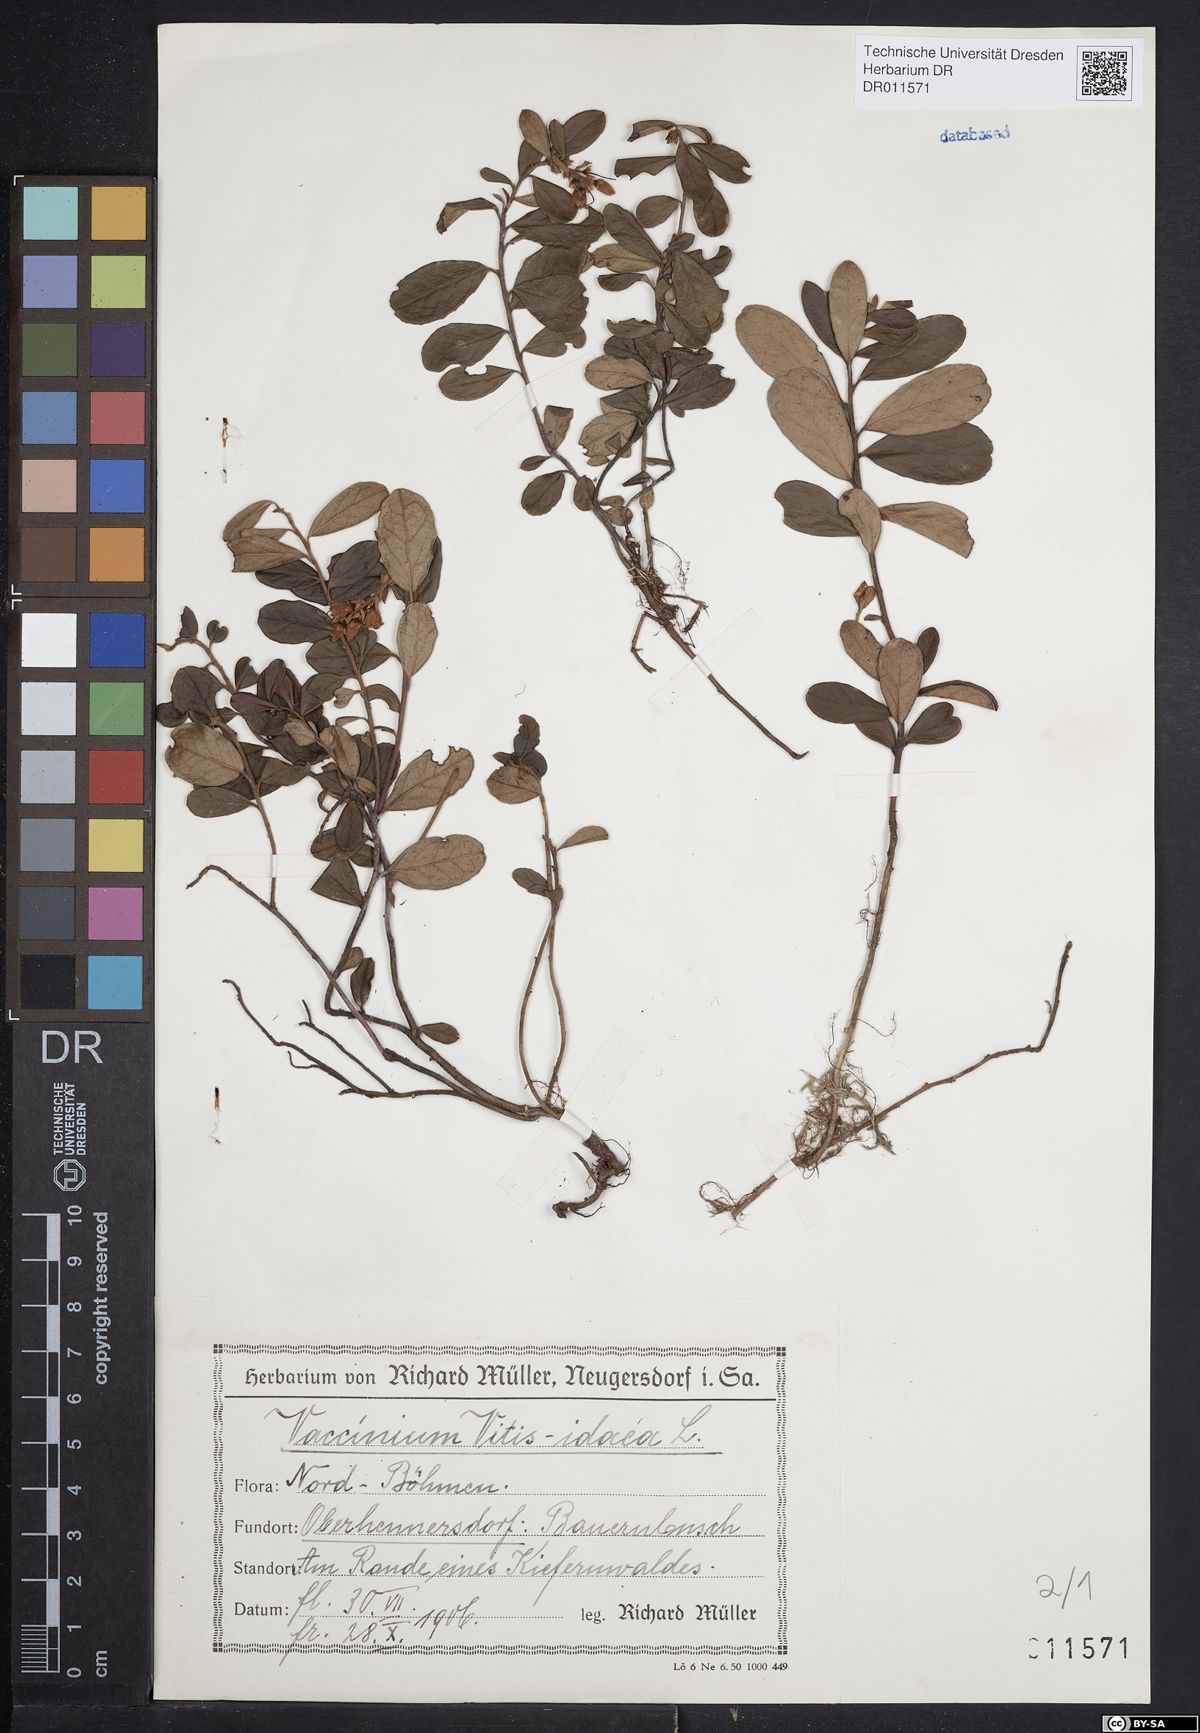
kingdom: Plantae
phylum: Tracheophyta
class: Magnoliopsida
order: Ericales
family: Ericaceae
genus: Vaccinium
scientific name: Vaccinium vitis-idaea
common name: Cowberry
